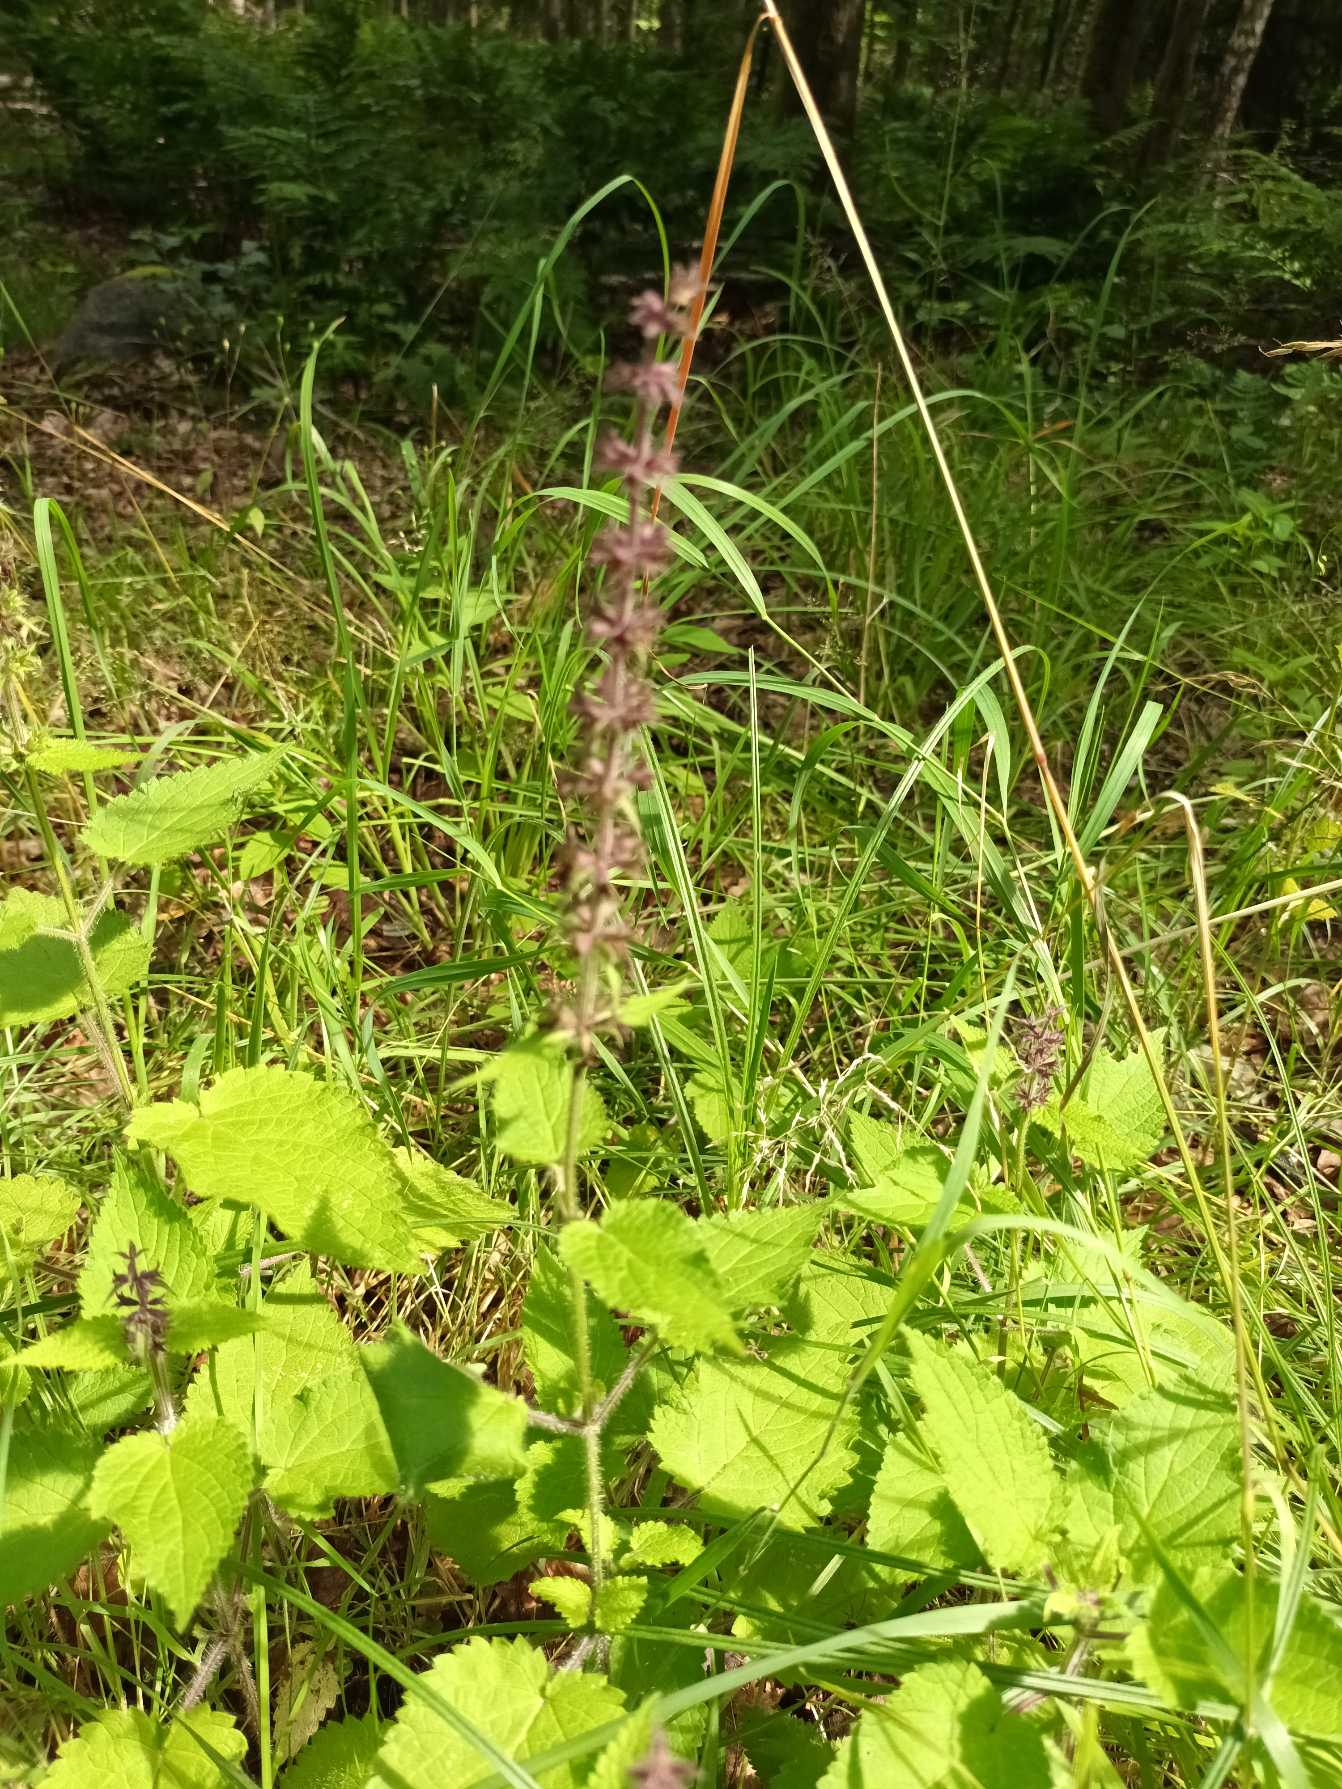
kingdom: Plantae
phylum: Tracheophyta
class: Magnoliopsida
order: Lamiales
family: Lamiaceae
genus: Stachys
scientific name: Stachys sylvatica
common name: Skov-galtetand
